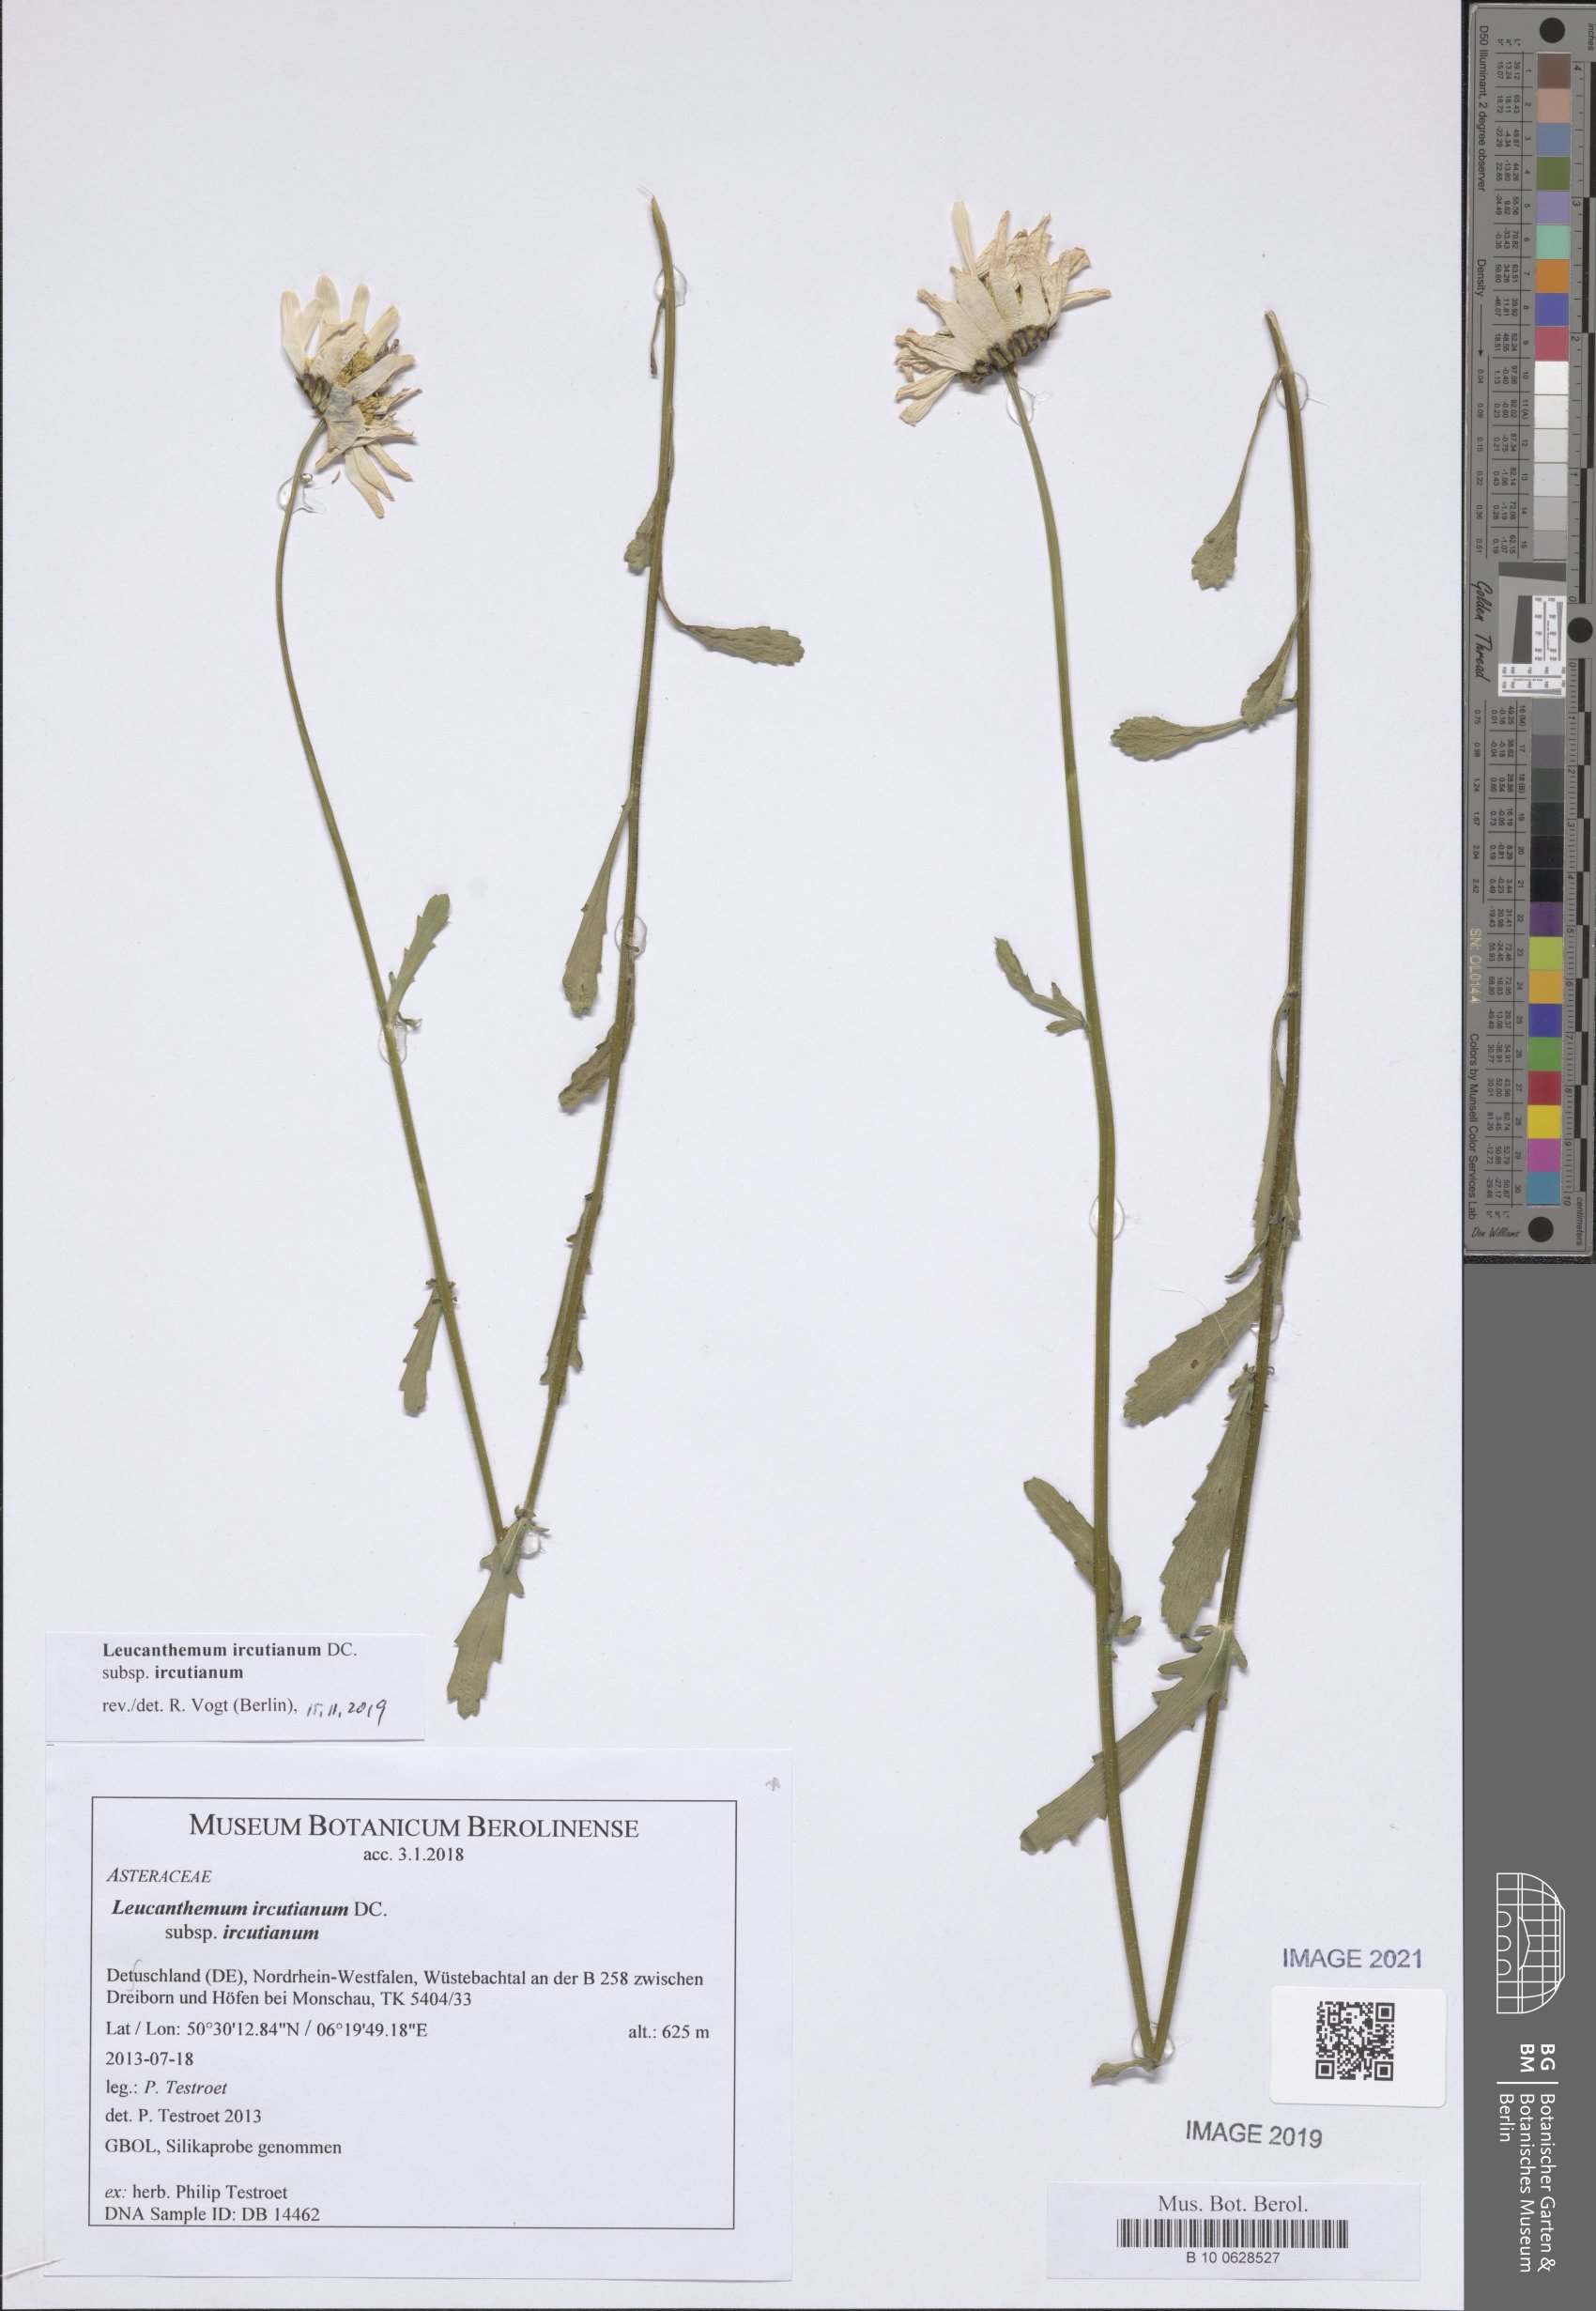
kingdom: Plantae
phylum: Tracheophyta
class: Magnoliopsida
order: Asterales
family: Asteraceae
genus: Leucanthemum
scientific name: Leucanthemum ircutianum
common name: Daisy
